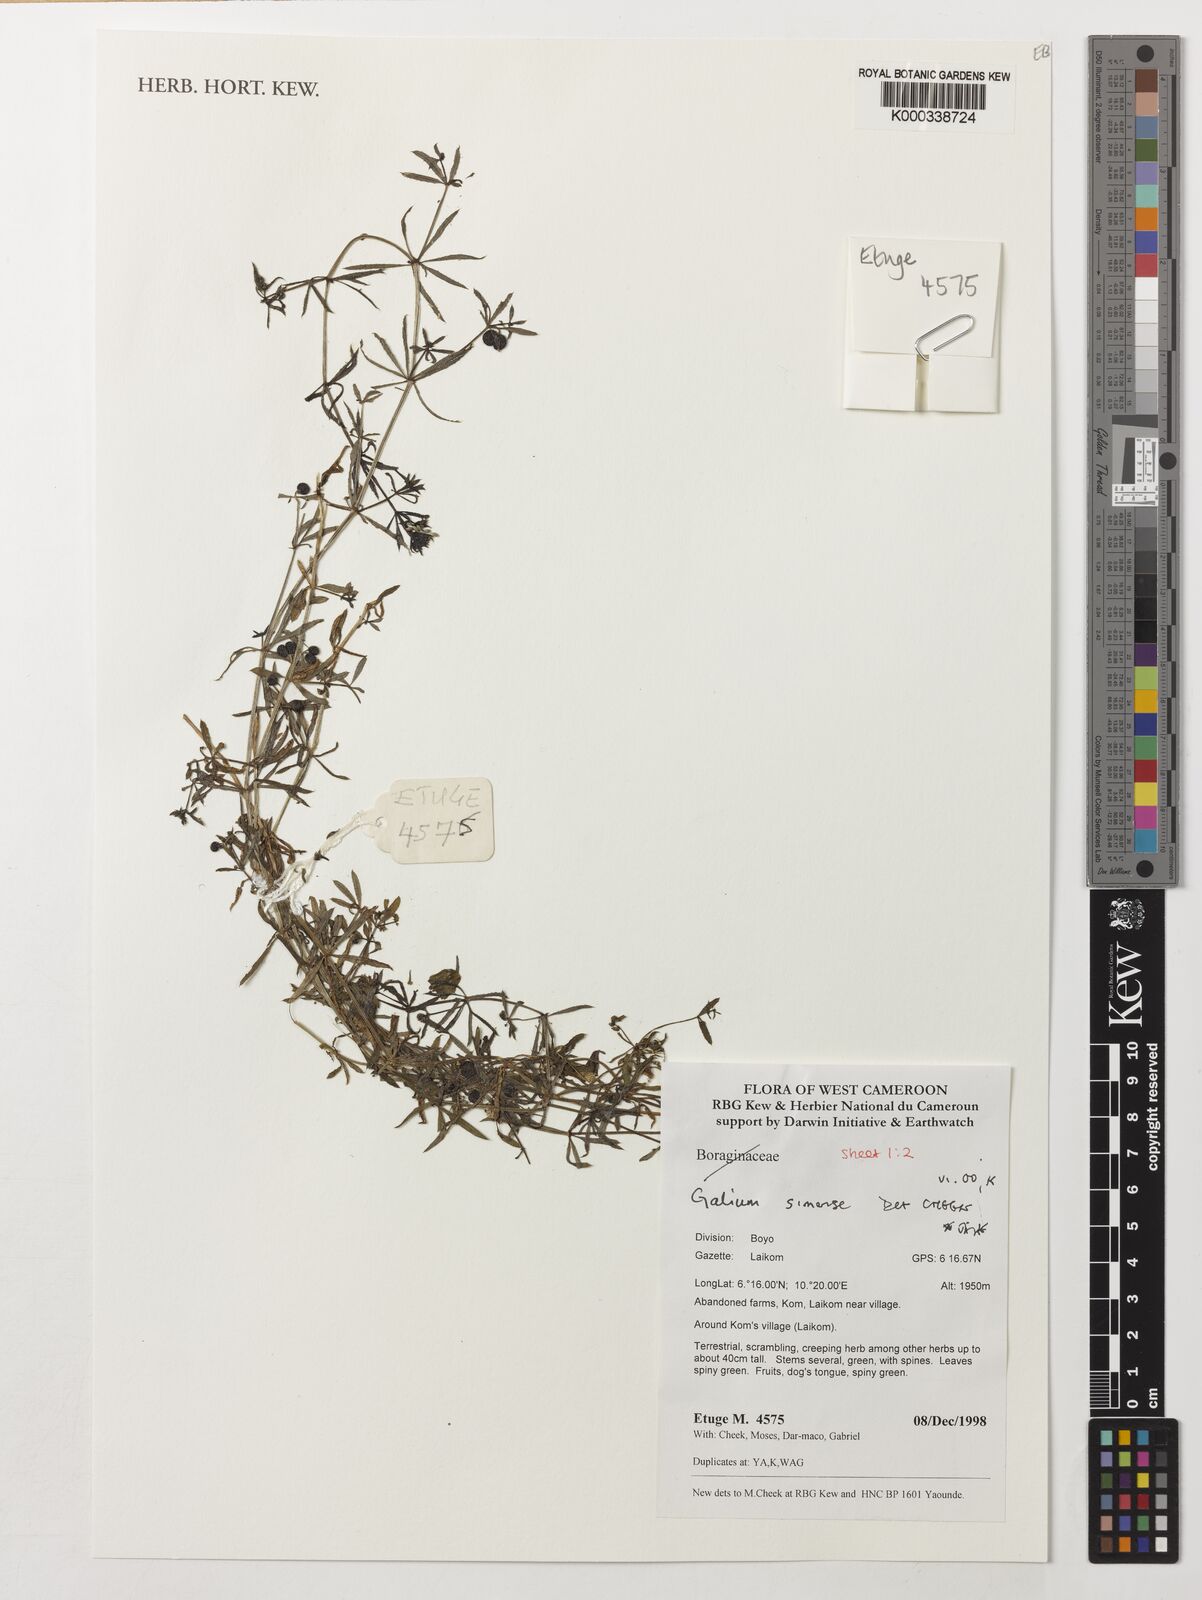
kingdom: Plantae
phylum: Tracheophyta
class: Magnoliopsida
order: Gentianales
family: Rubiaceae
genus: Galium
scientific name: Galium simense
